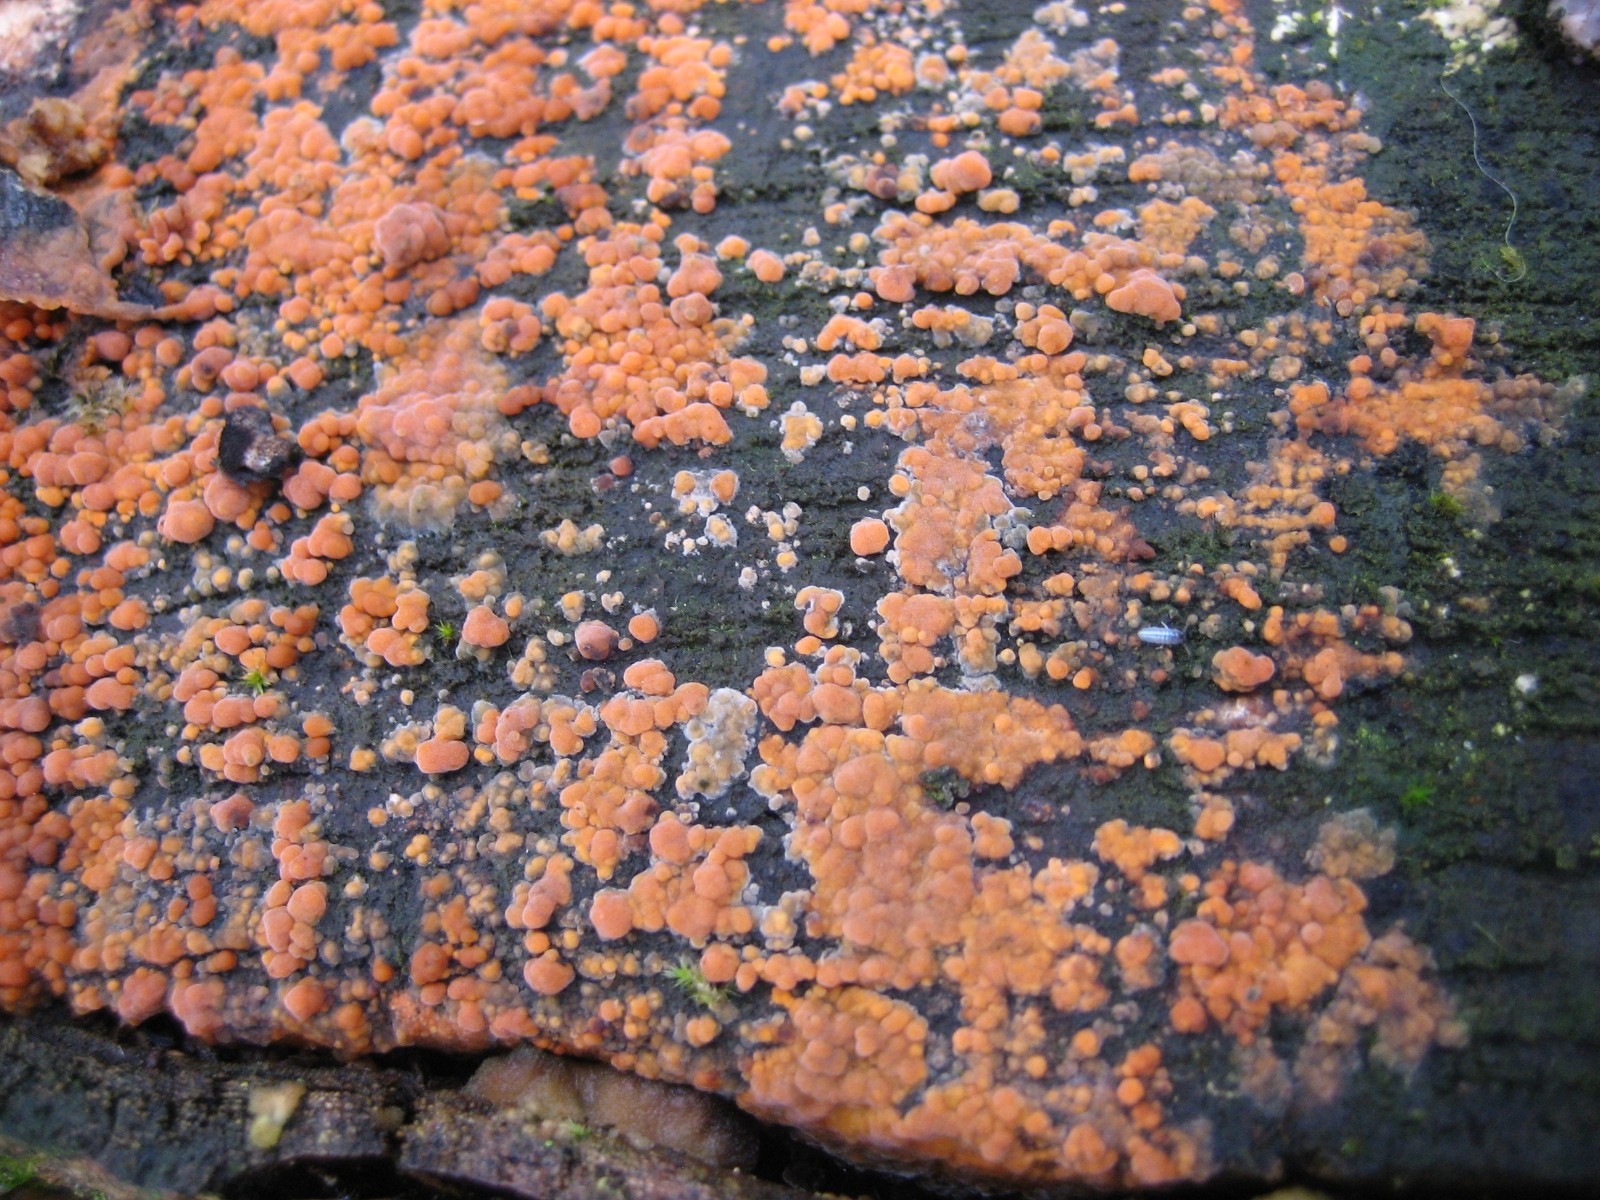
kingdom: Fungi
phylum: Basidiomycota
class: Agaricomycetes
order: Russulales
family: Peniophoraceae
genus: Peniophora
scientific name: Peniophora incarnata
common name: laksefarvet voksskind
